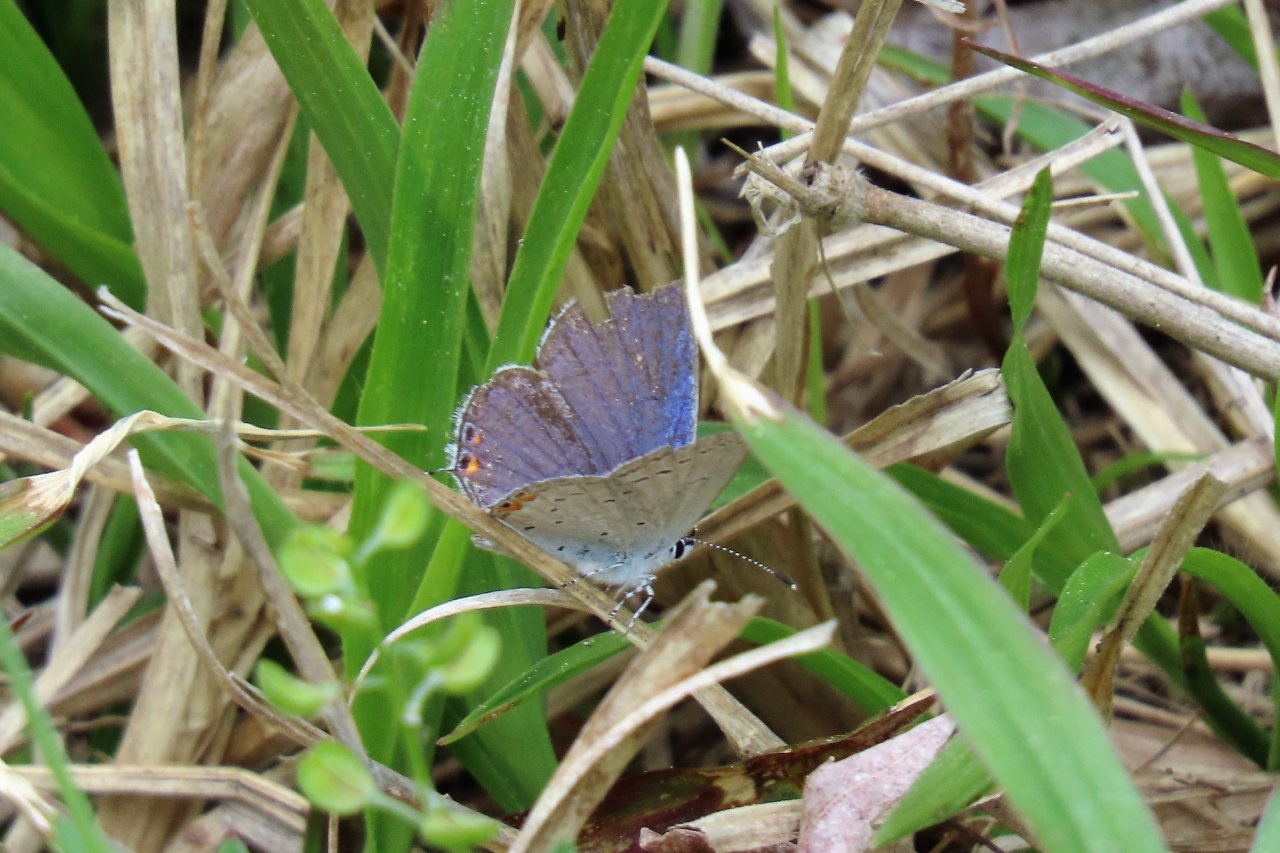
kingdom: Animalia
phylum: Arthropoda
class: Insecta
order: Lepidoptera
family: Lycaenidae
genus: Elkalyce
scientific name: Elkalyce comyntas
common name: Eastern Tailed-Blue
